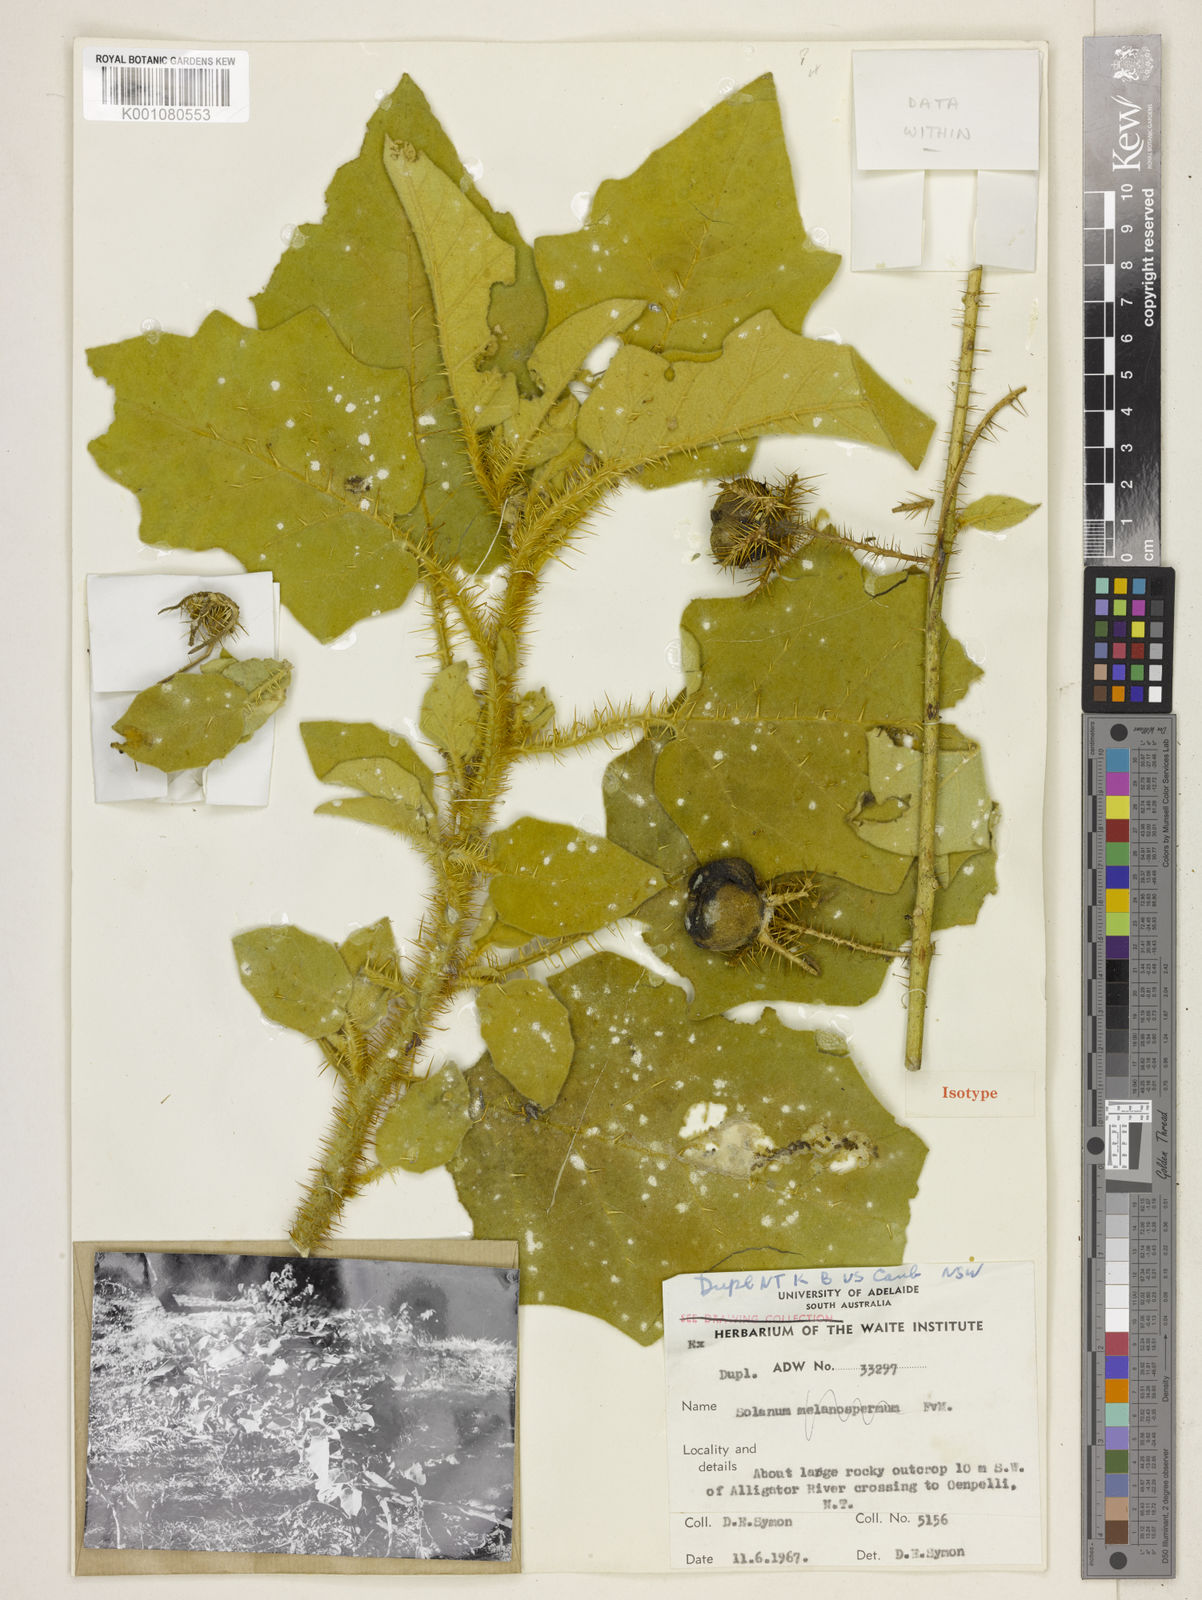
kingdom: Plantae
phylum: Tracheophyta
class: Magnoliopsida
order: Solanales
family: Solanaceae
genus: Solanum
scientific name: Solanum clarkiae
